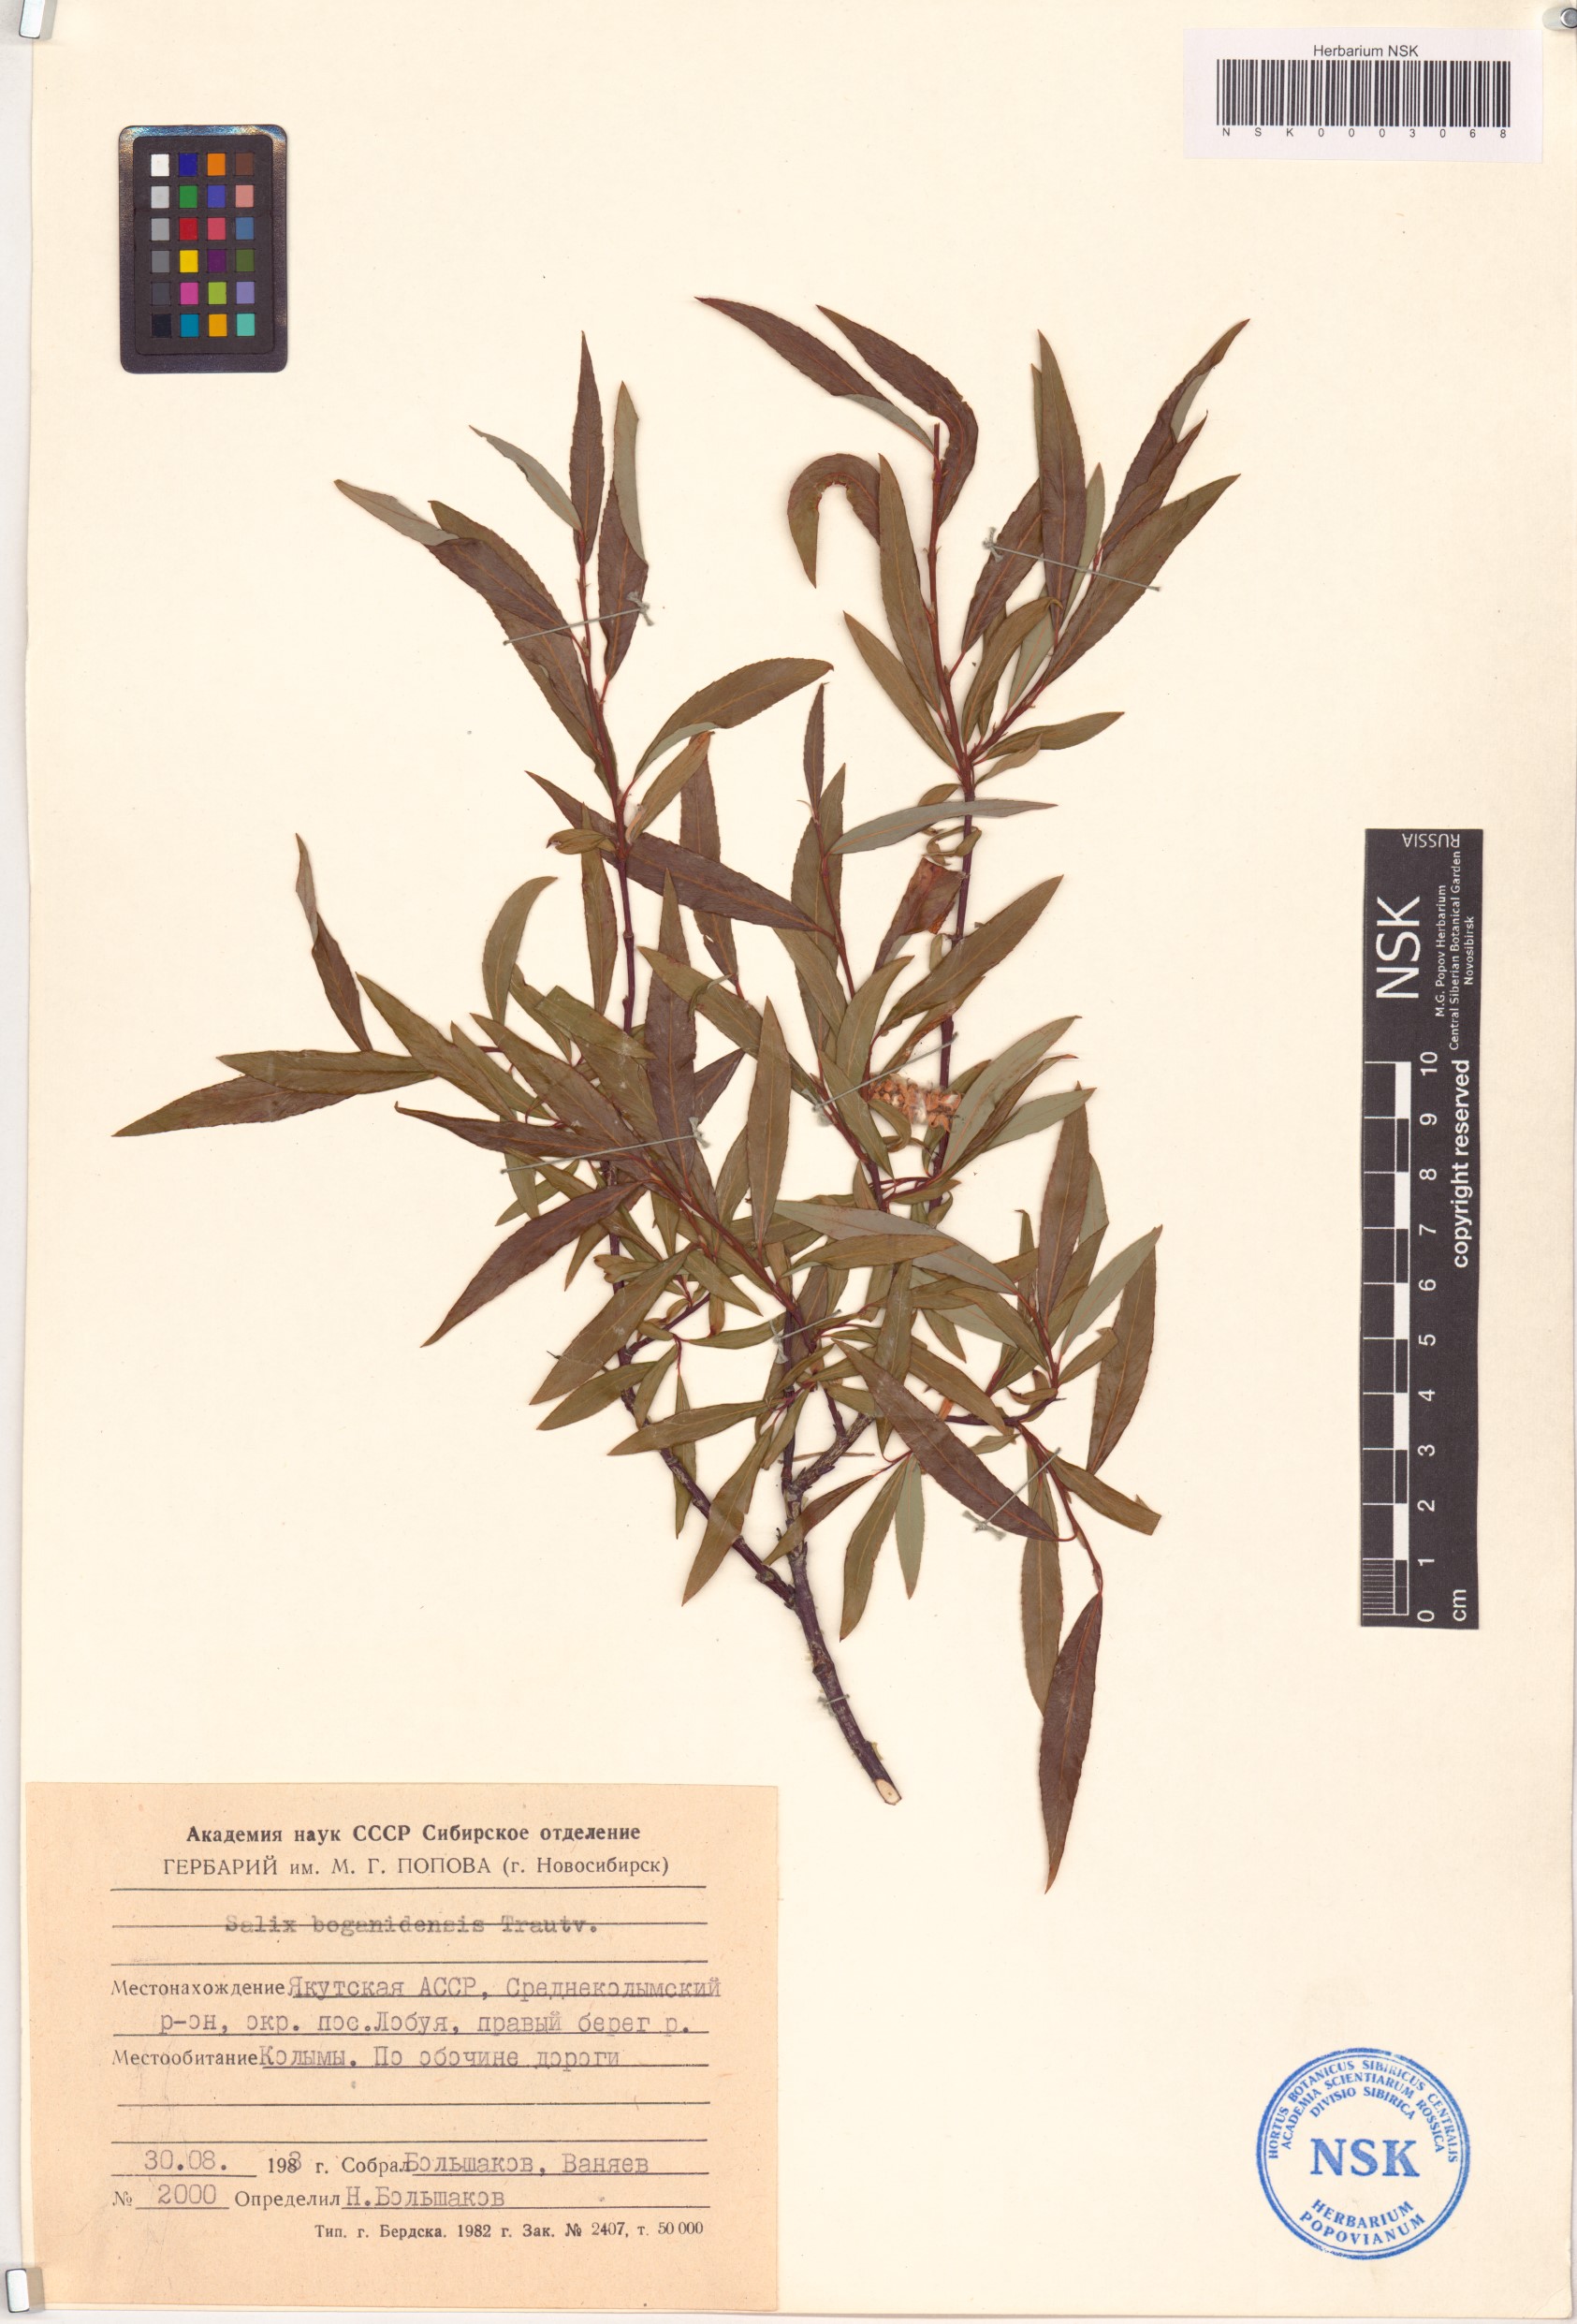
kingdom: Plantae
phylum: Tracheophyta
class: Magnoliopsida
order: Malpighiales
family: Salicaceae
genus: Salix
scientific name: Salix boganidensis
